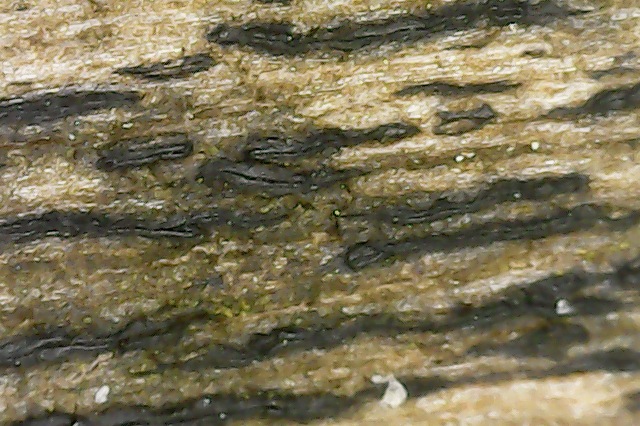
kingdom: Fungi
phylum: Ascomycota
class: Dothideomycetes
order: Mytilinidiales
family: Gloniaceae
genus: Glonium
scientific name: Glonium lineare
